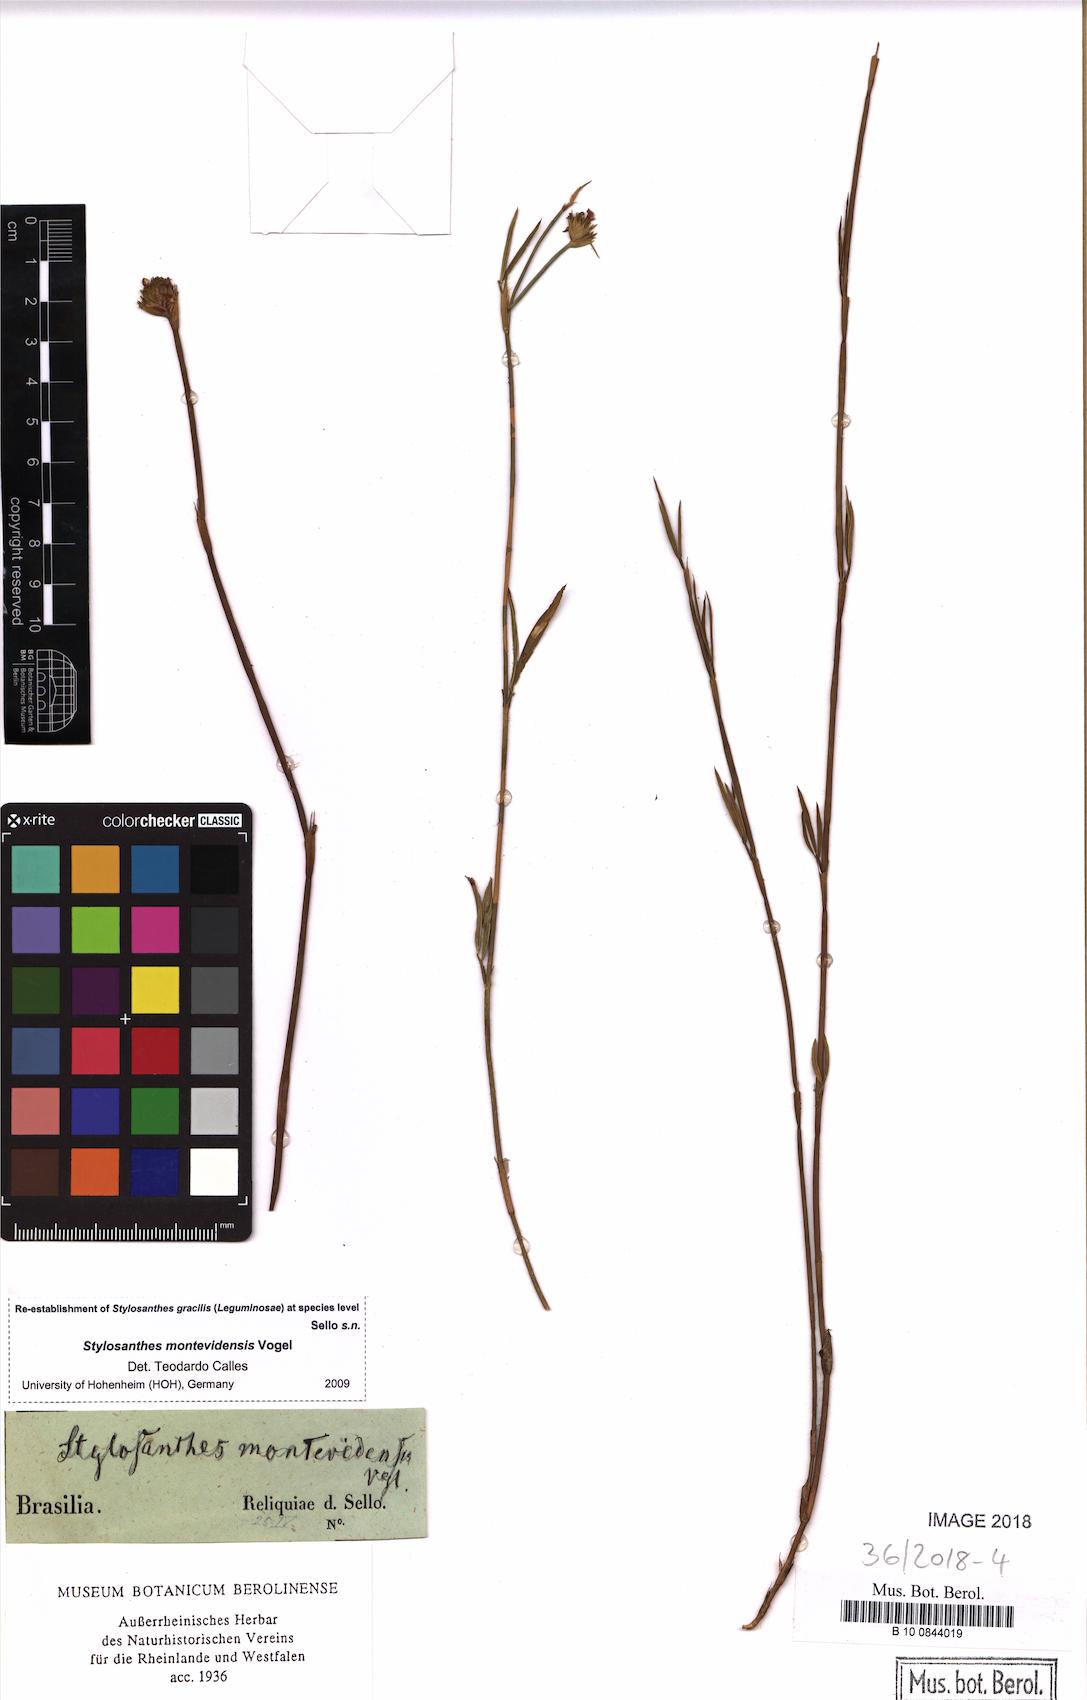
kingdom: Plantae
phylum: Tracheophyta
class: Magnoliopsida
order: Fabales
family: Fabaceae
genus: Stylosanthes
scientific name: Stylosanthes montevidensis
